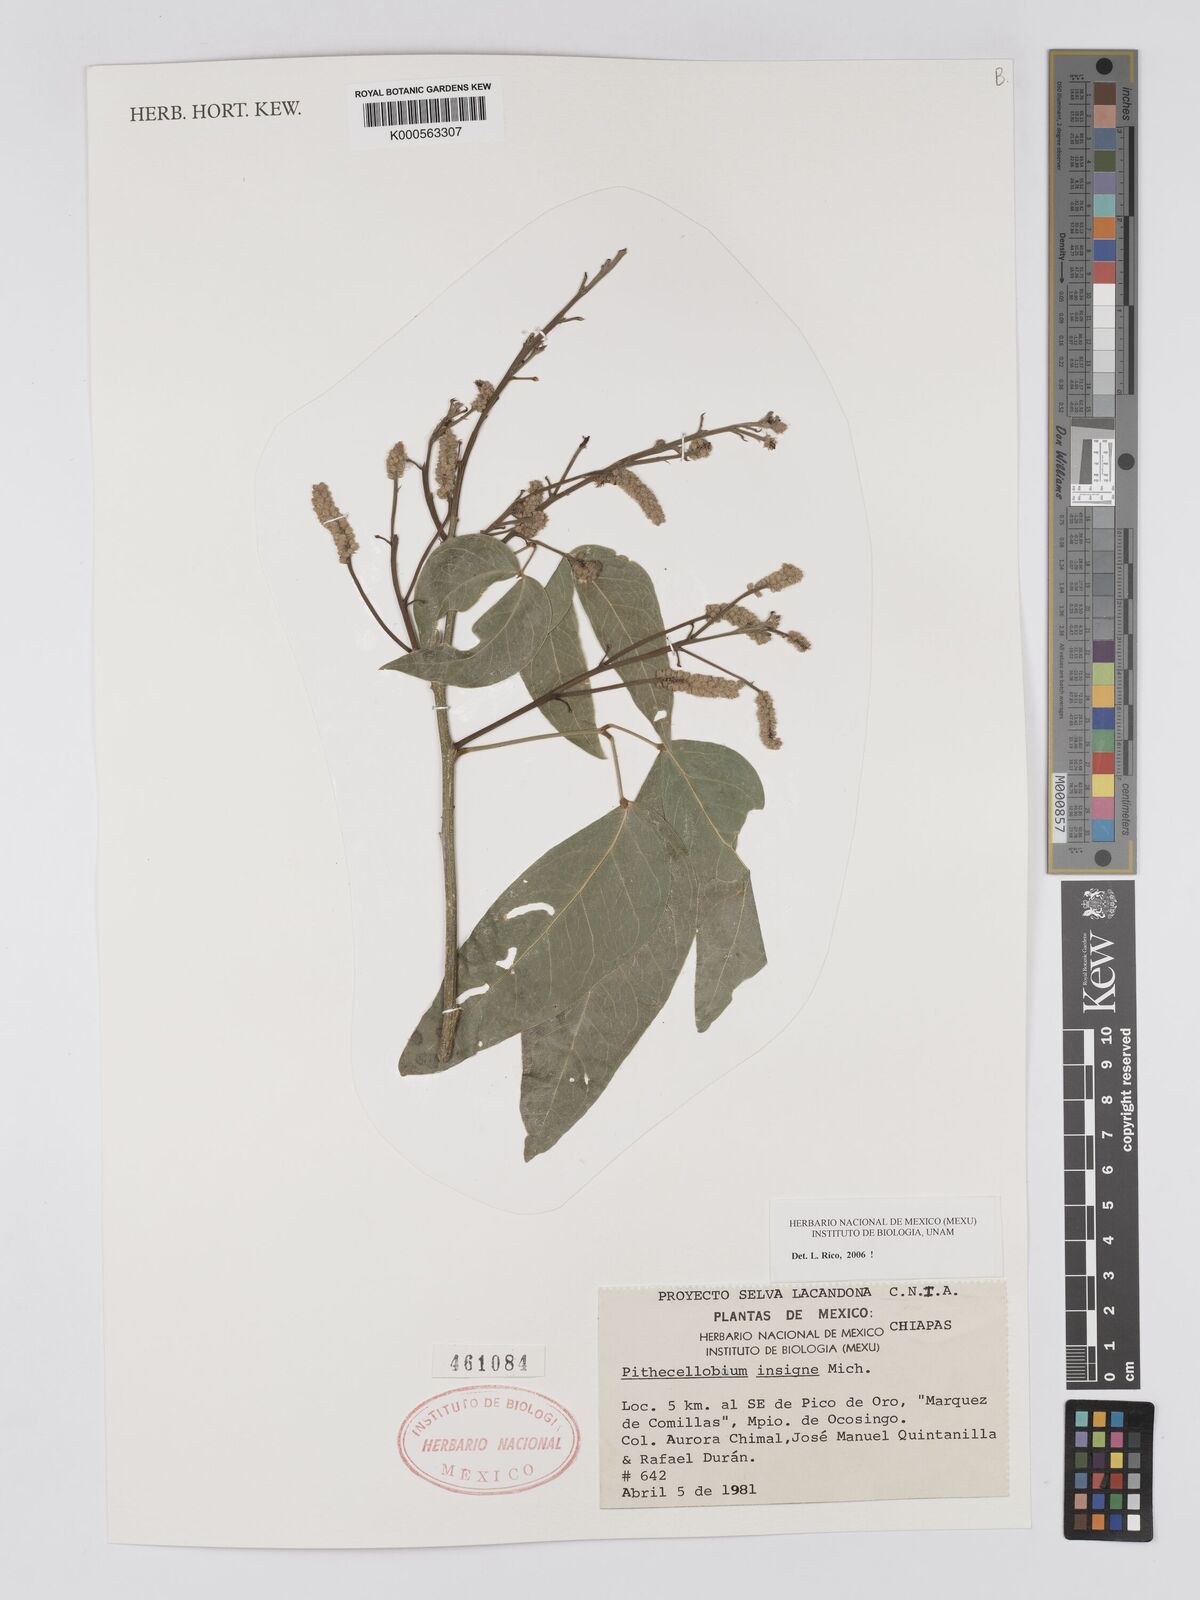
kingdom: Plantae
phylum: Tracheophyta
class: Magnoliopsida
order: Fabales
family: Fabaceae
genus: Pithecellobium
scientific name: Pithecellobium lanceolatum
